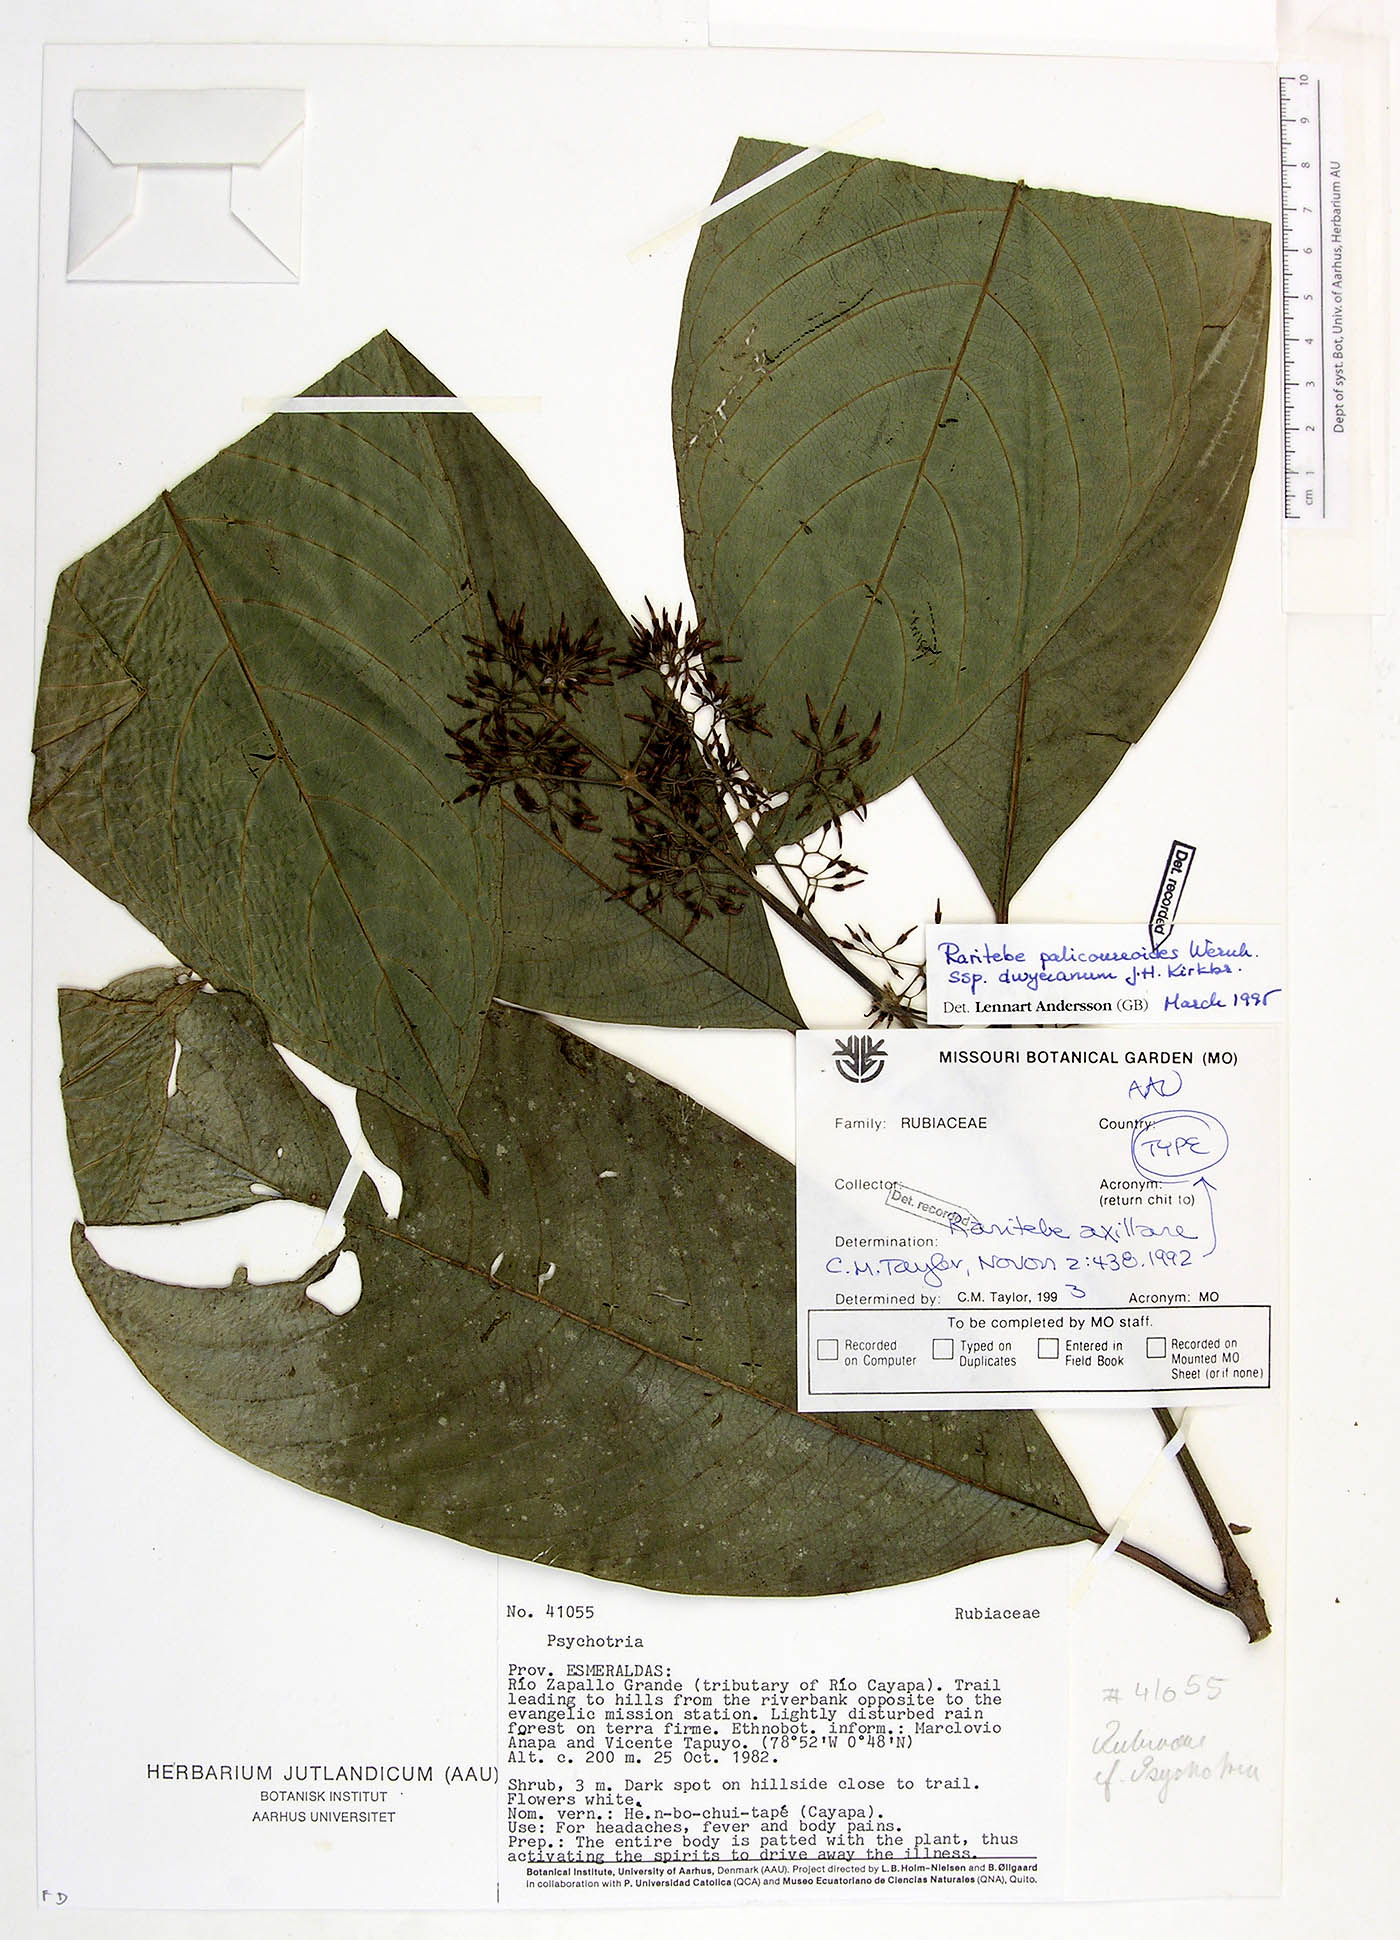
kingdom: Plantae
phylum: Tracheophyta
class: Magnoliopsida
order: Gentianales
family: Rubiaceae
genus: Raritebe
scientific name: Raritebe palicoureoides
